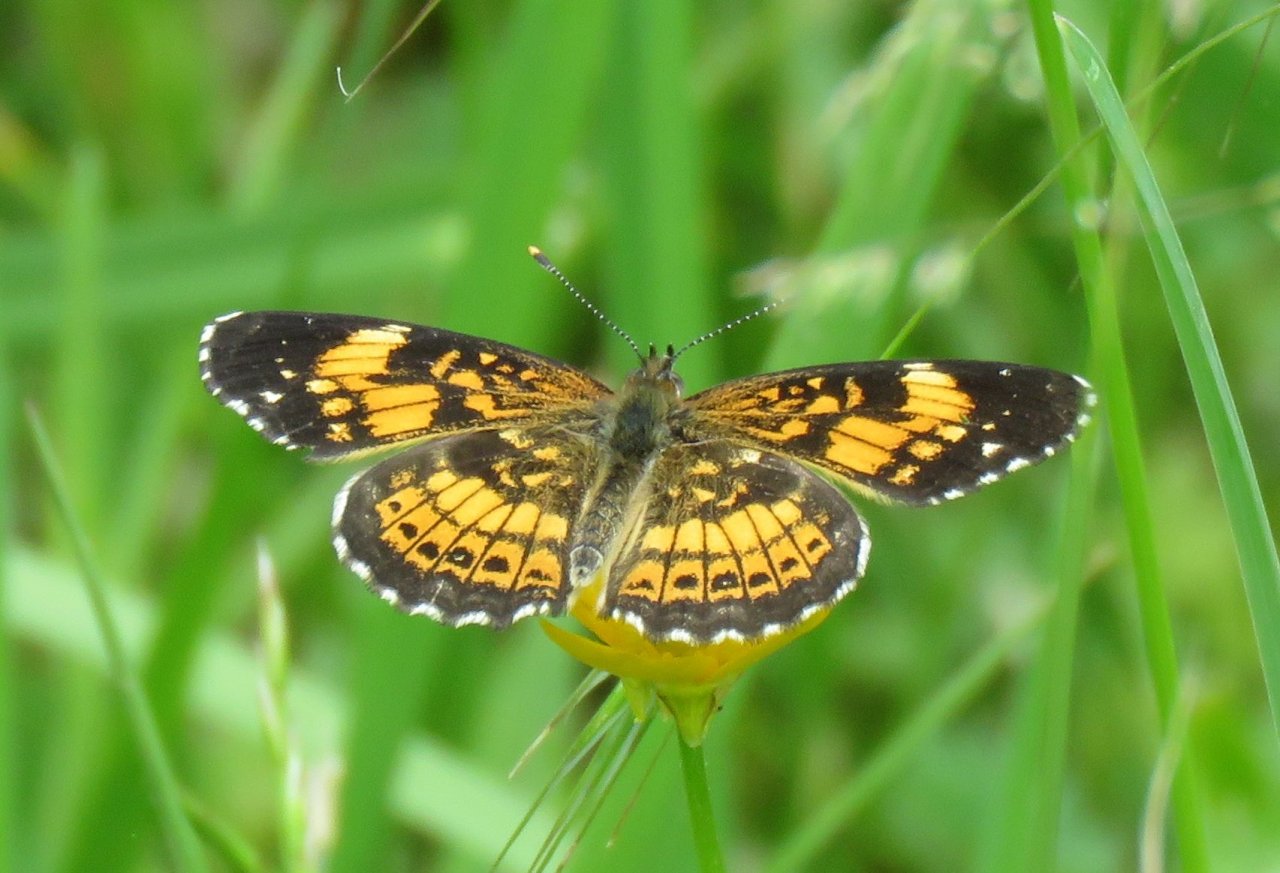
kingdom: Animalia
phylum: Arthropoda
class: Insecta
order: Lepidoptera
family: Nymphalidae
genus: Chlosyne
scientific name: Chlosyne nycteis
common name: Silvery Checkerspot
